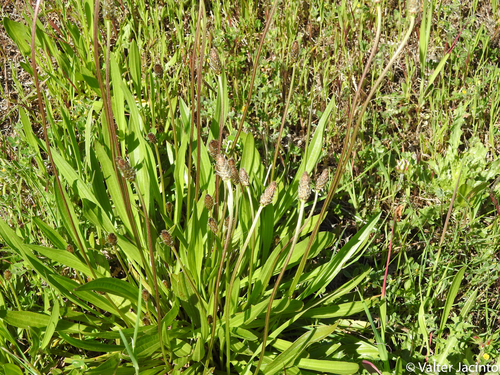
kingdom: Plantae
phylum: Tracheophyta
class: Magnoliopsida
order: Lamiales
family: Plantaginaceae
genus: Plantago
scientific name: Plantago lanceolata
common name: Ribwort plantain
